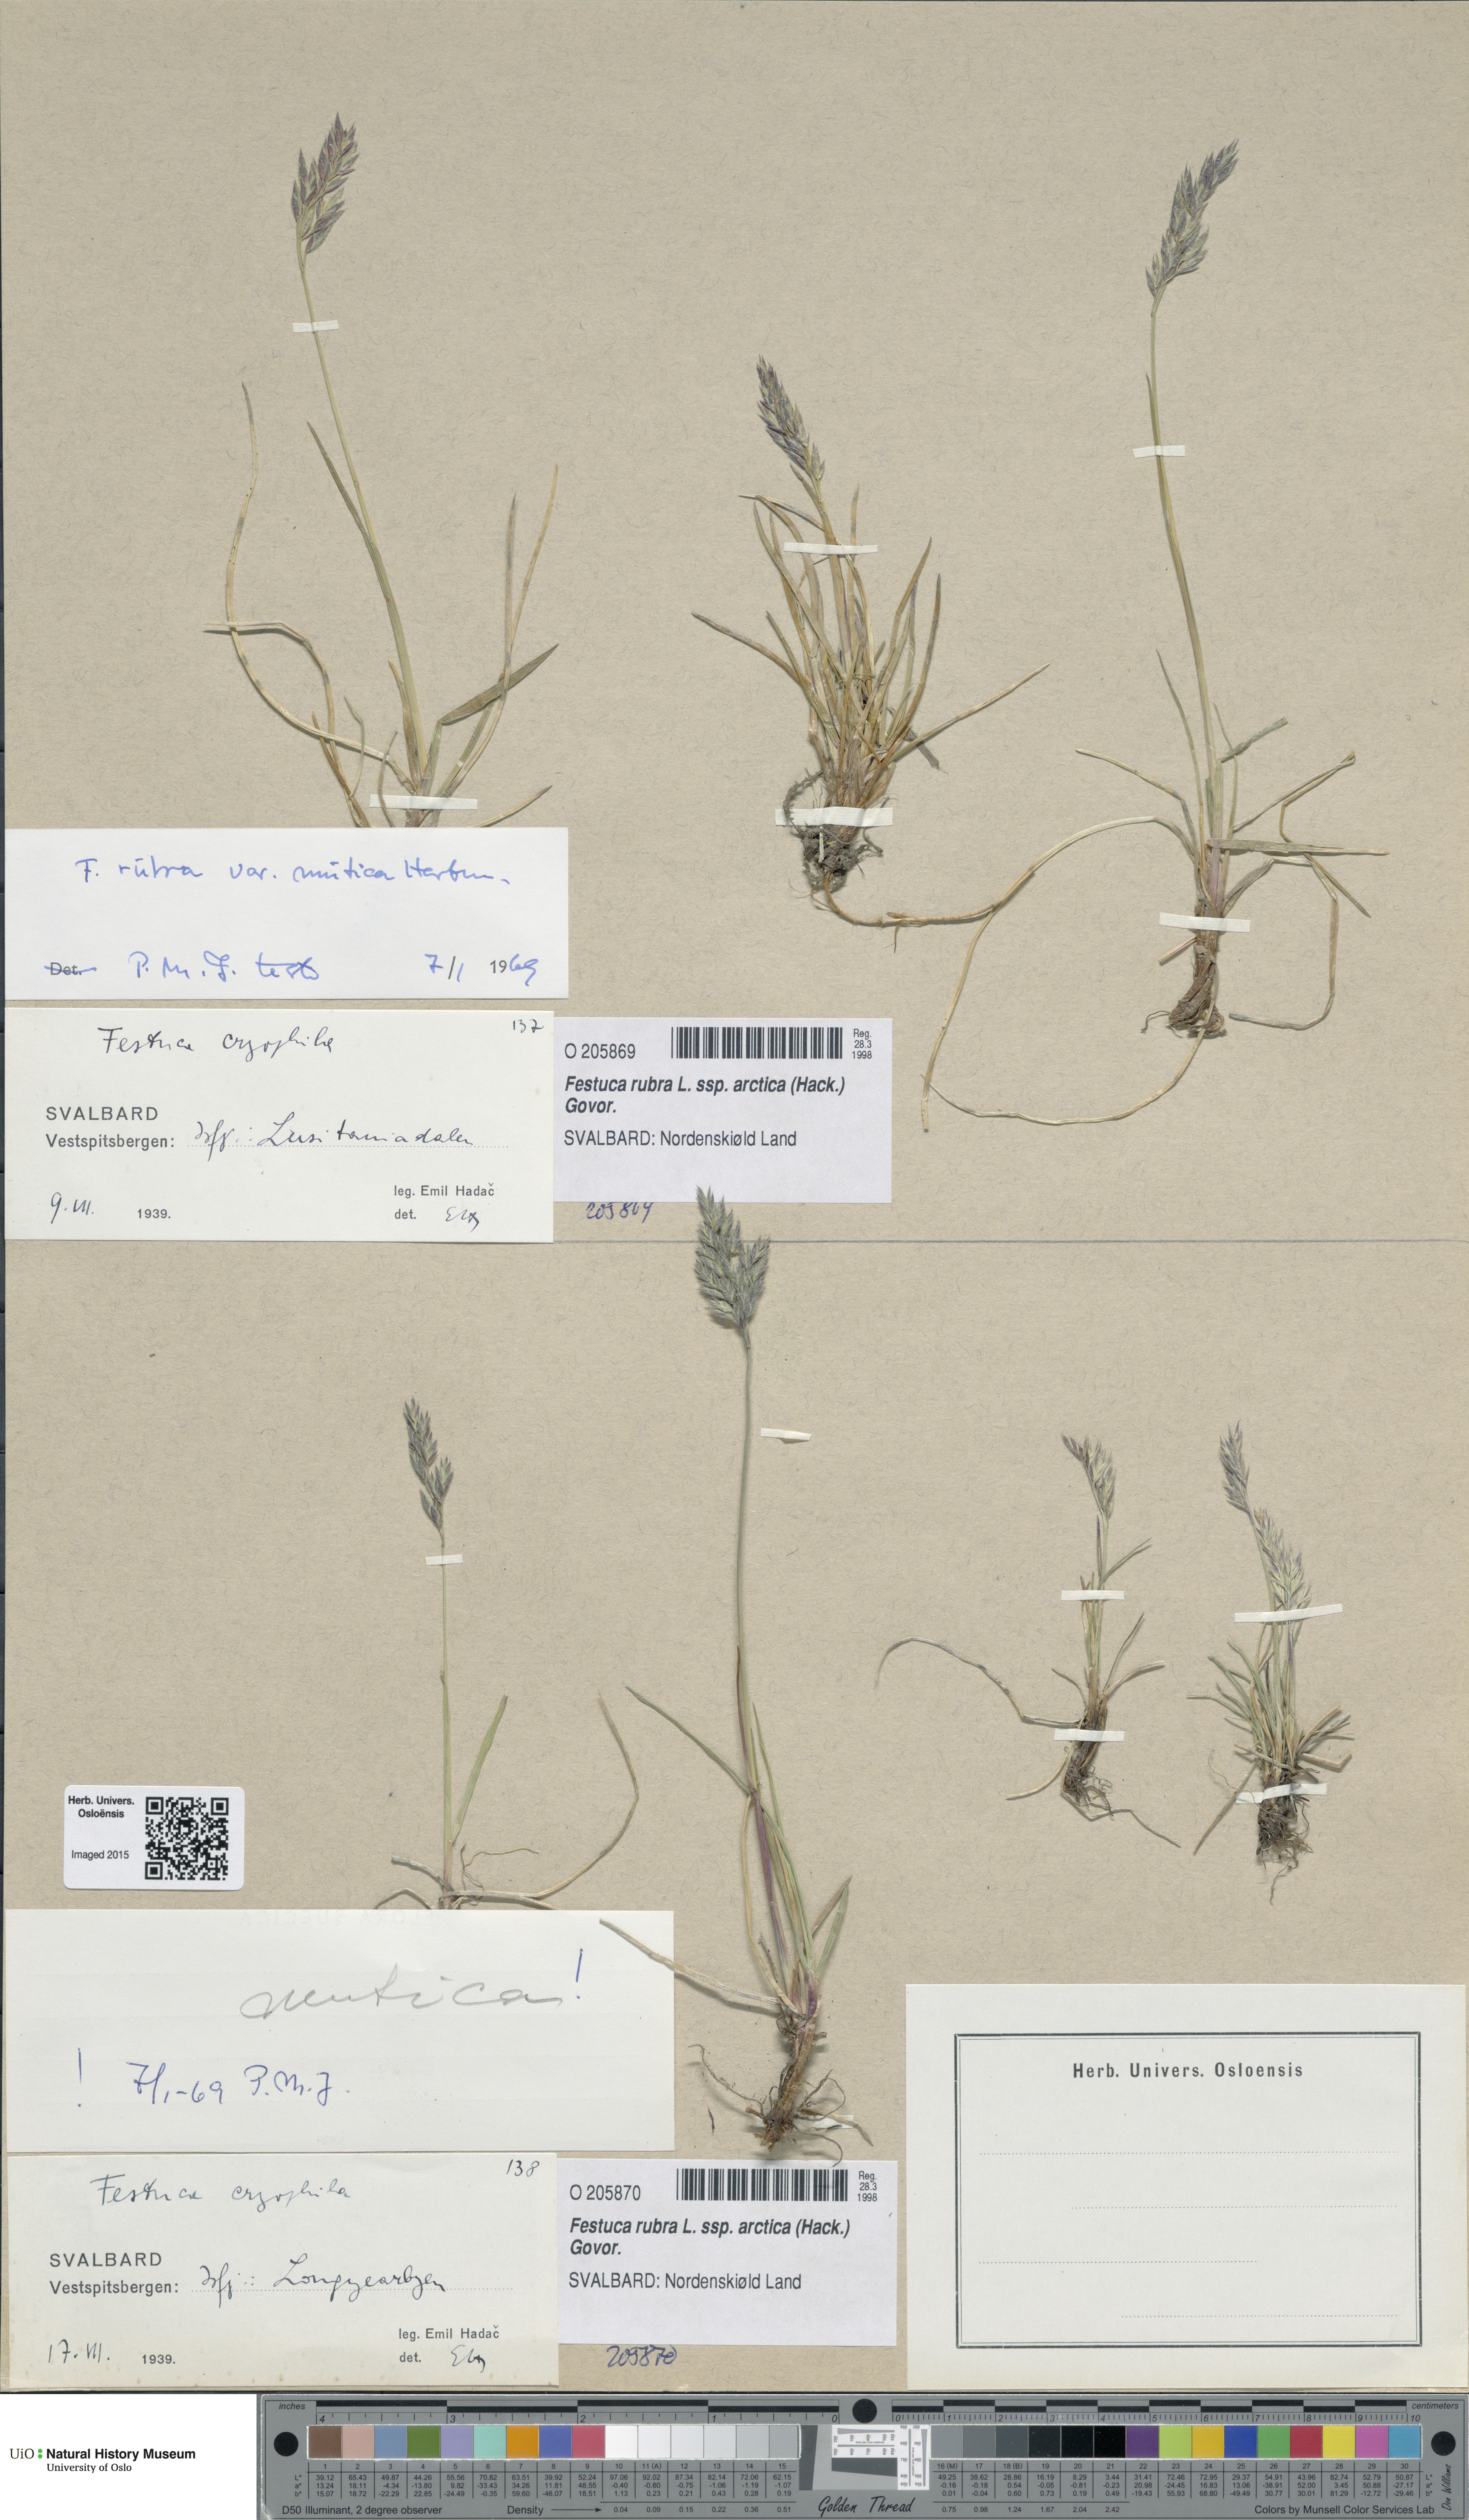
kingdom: Plantae
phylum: Tracheophyta
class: Liliopsida
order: Poales
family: Poaceae
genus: Festuca
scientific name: Festuca richardsonii
